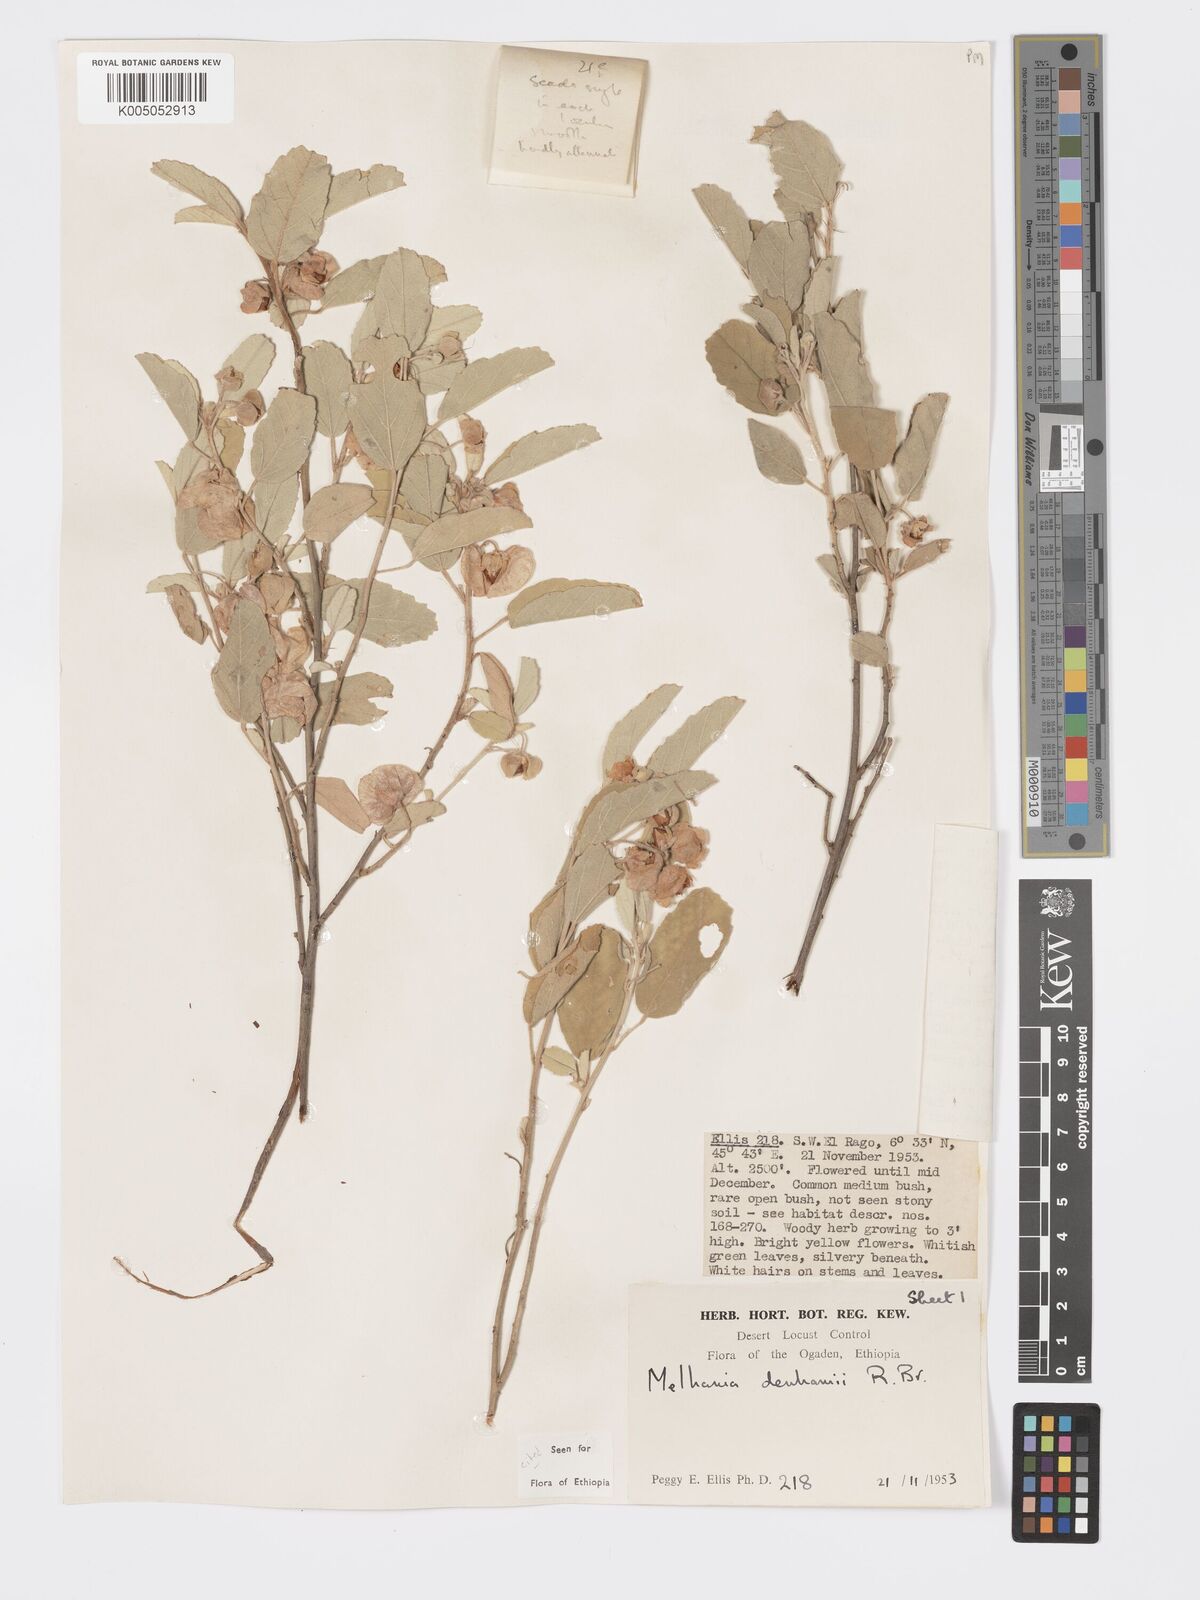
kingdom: Plantae
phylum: Tracheophyta
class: Magnoliopsida
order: Malvales
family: Malvaceae
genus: Melhania
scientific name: Melhania denhamii
